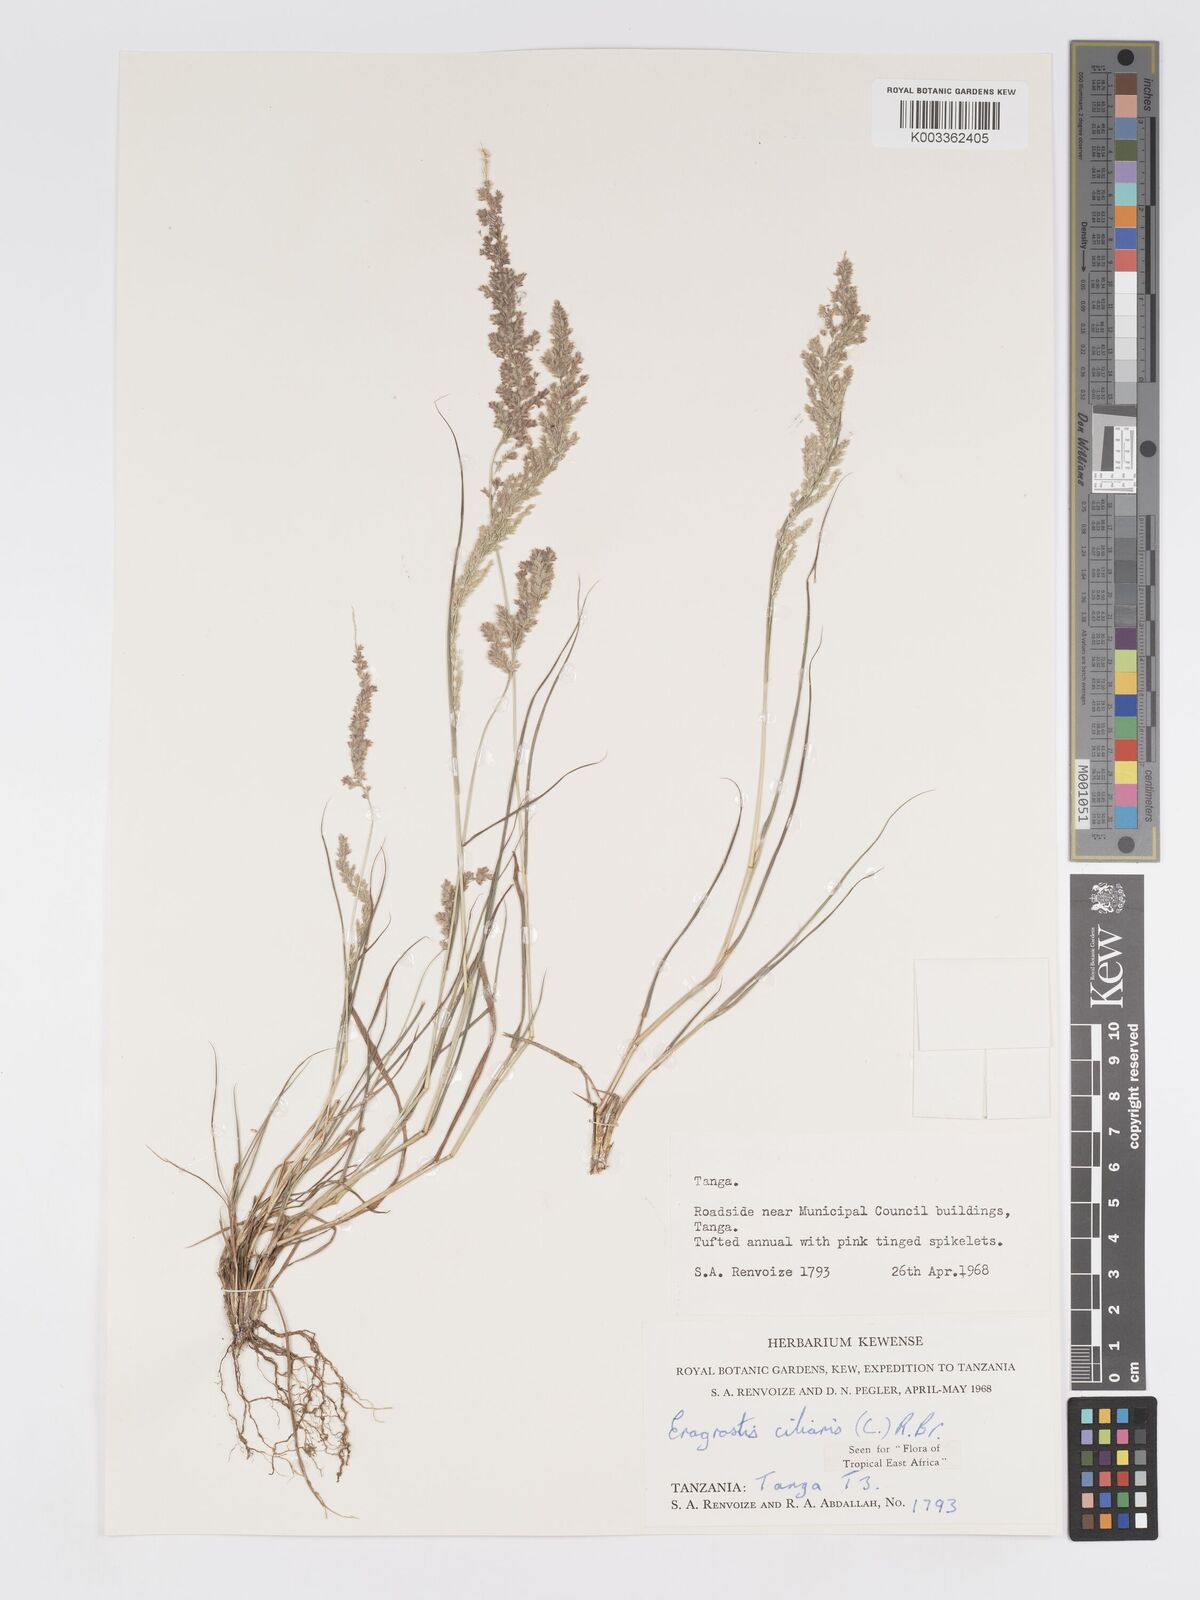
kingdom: Plantae
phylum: Tracheophyta
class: Liliopsida
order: Poales
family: Poaceae
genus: Eragrostis
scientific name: Eragrostis ciliaris
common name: Gophertail lovegrass
